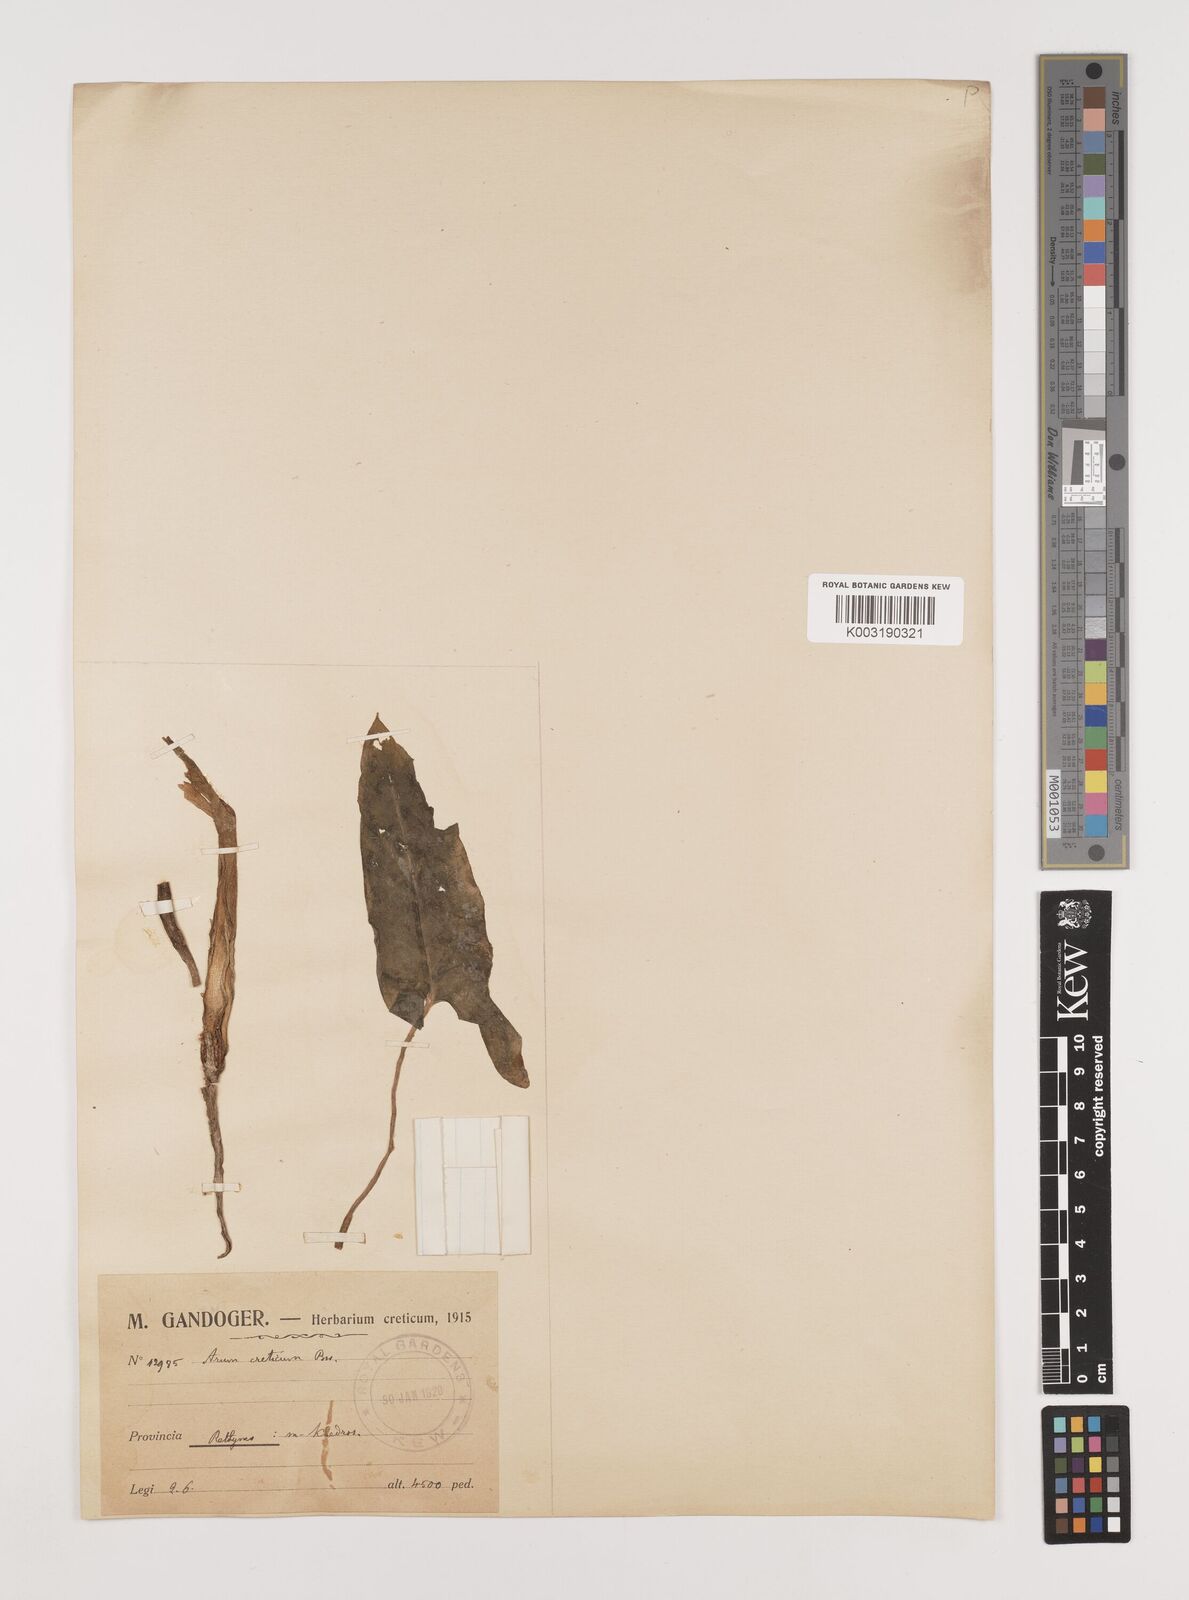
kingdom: Plantae
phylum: Tracheophyta
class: Liliopsida
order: Alismatales
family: Araceae
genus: Arum
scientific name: Arum creticum
